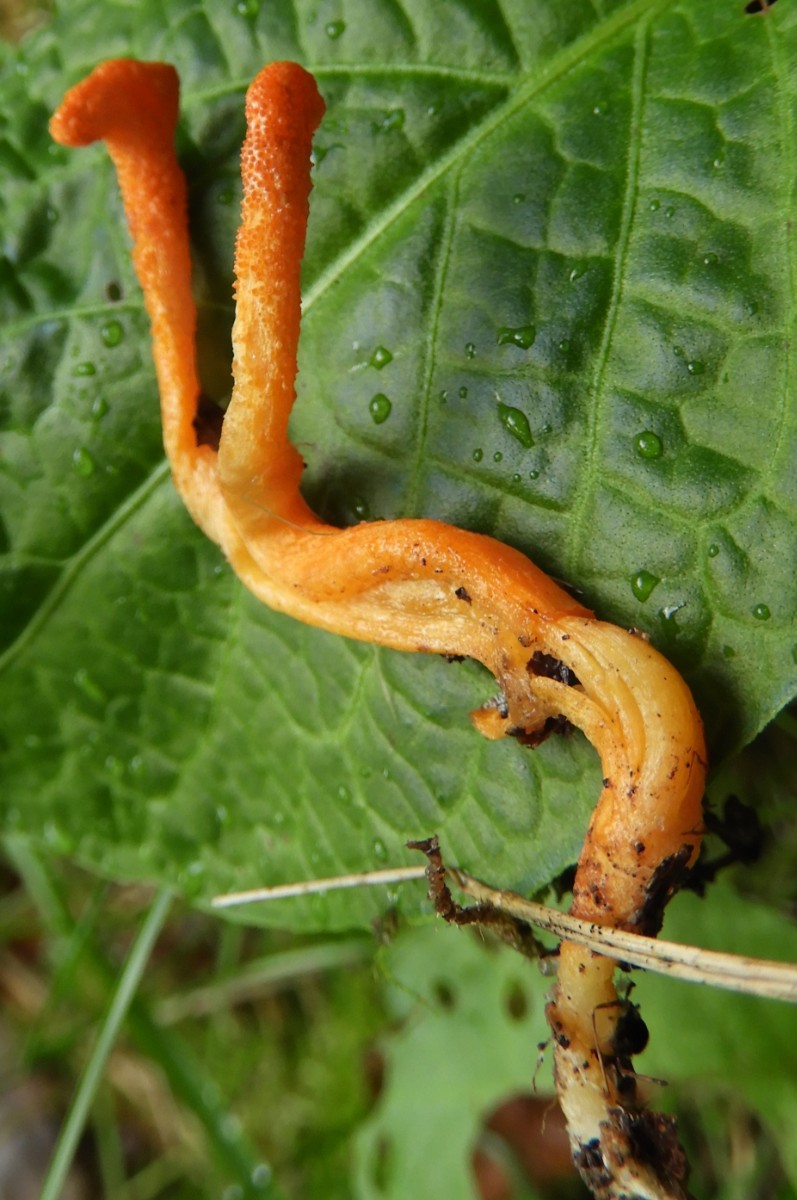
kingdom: Fungi
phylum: Ascomycota
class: Sordariomycetes
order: Hypocreales
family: Cordycipitaceae
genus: Cordyceps
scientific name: Cordyceps militaris
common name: puppe-snyltekølle
